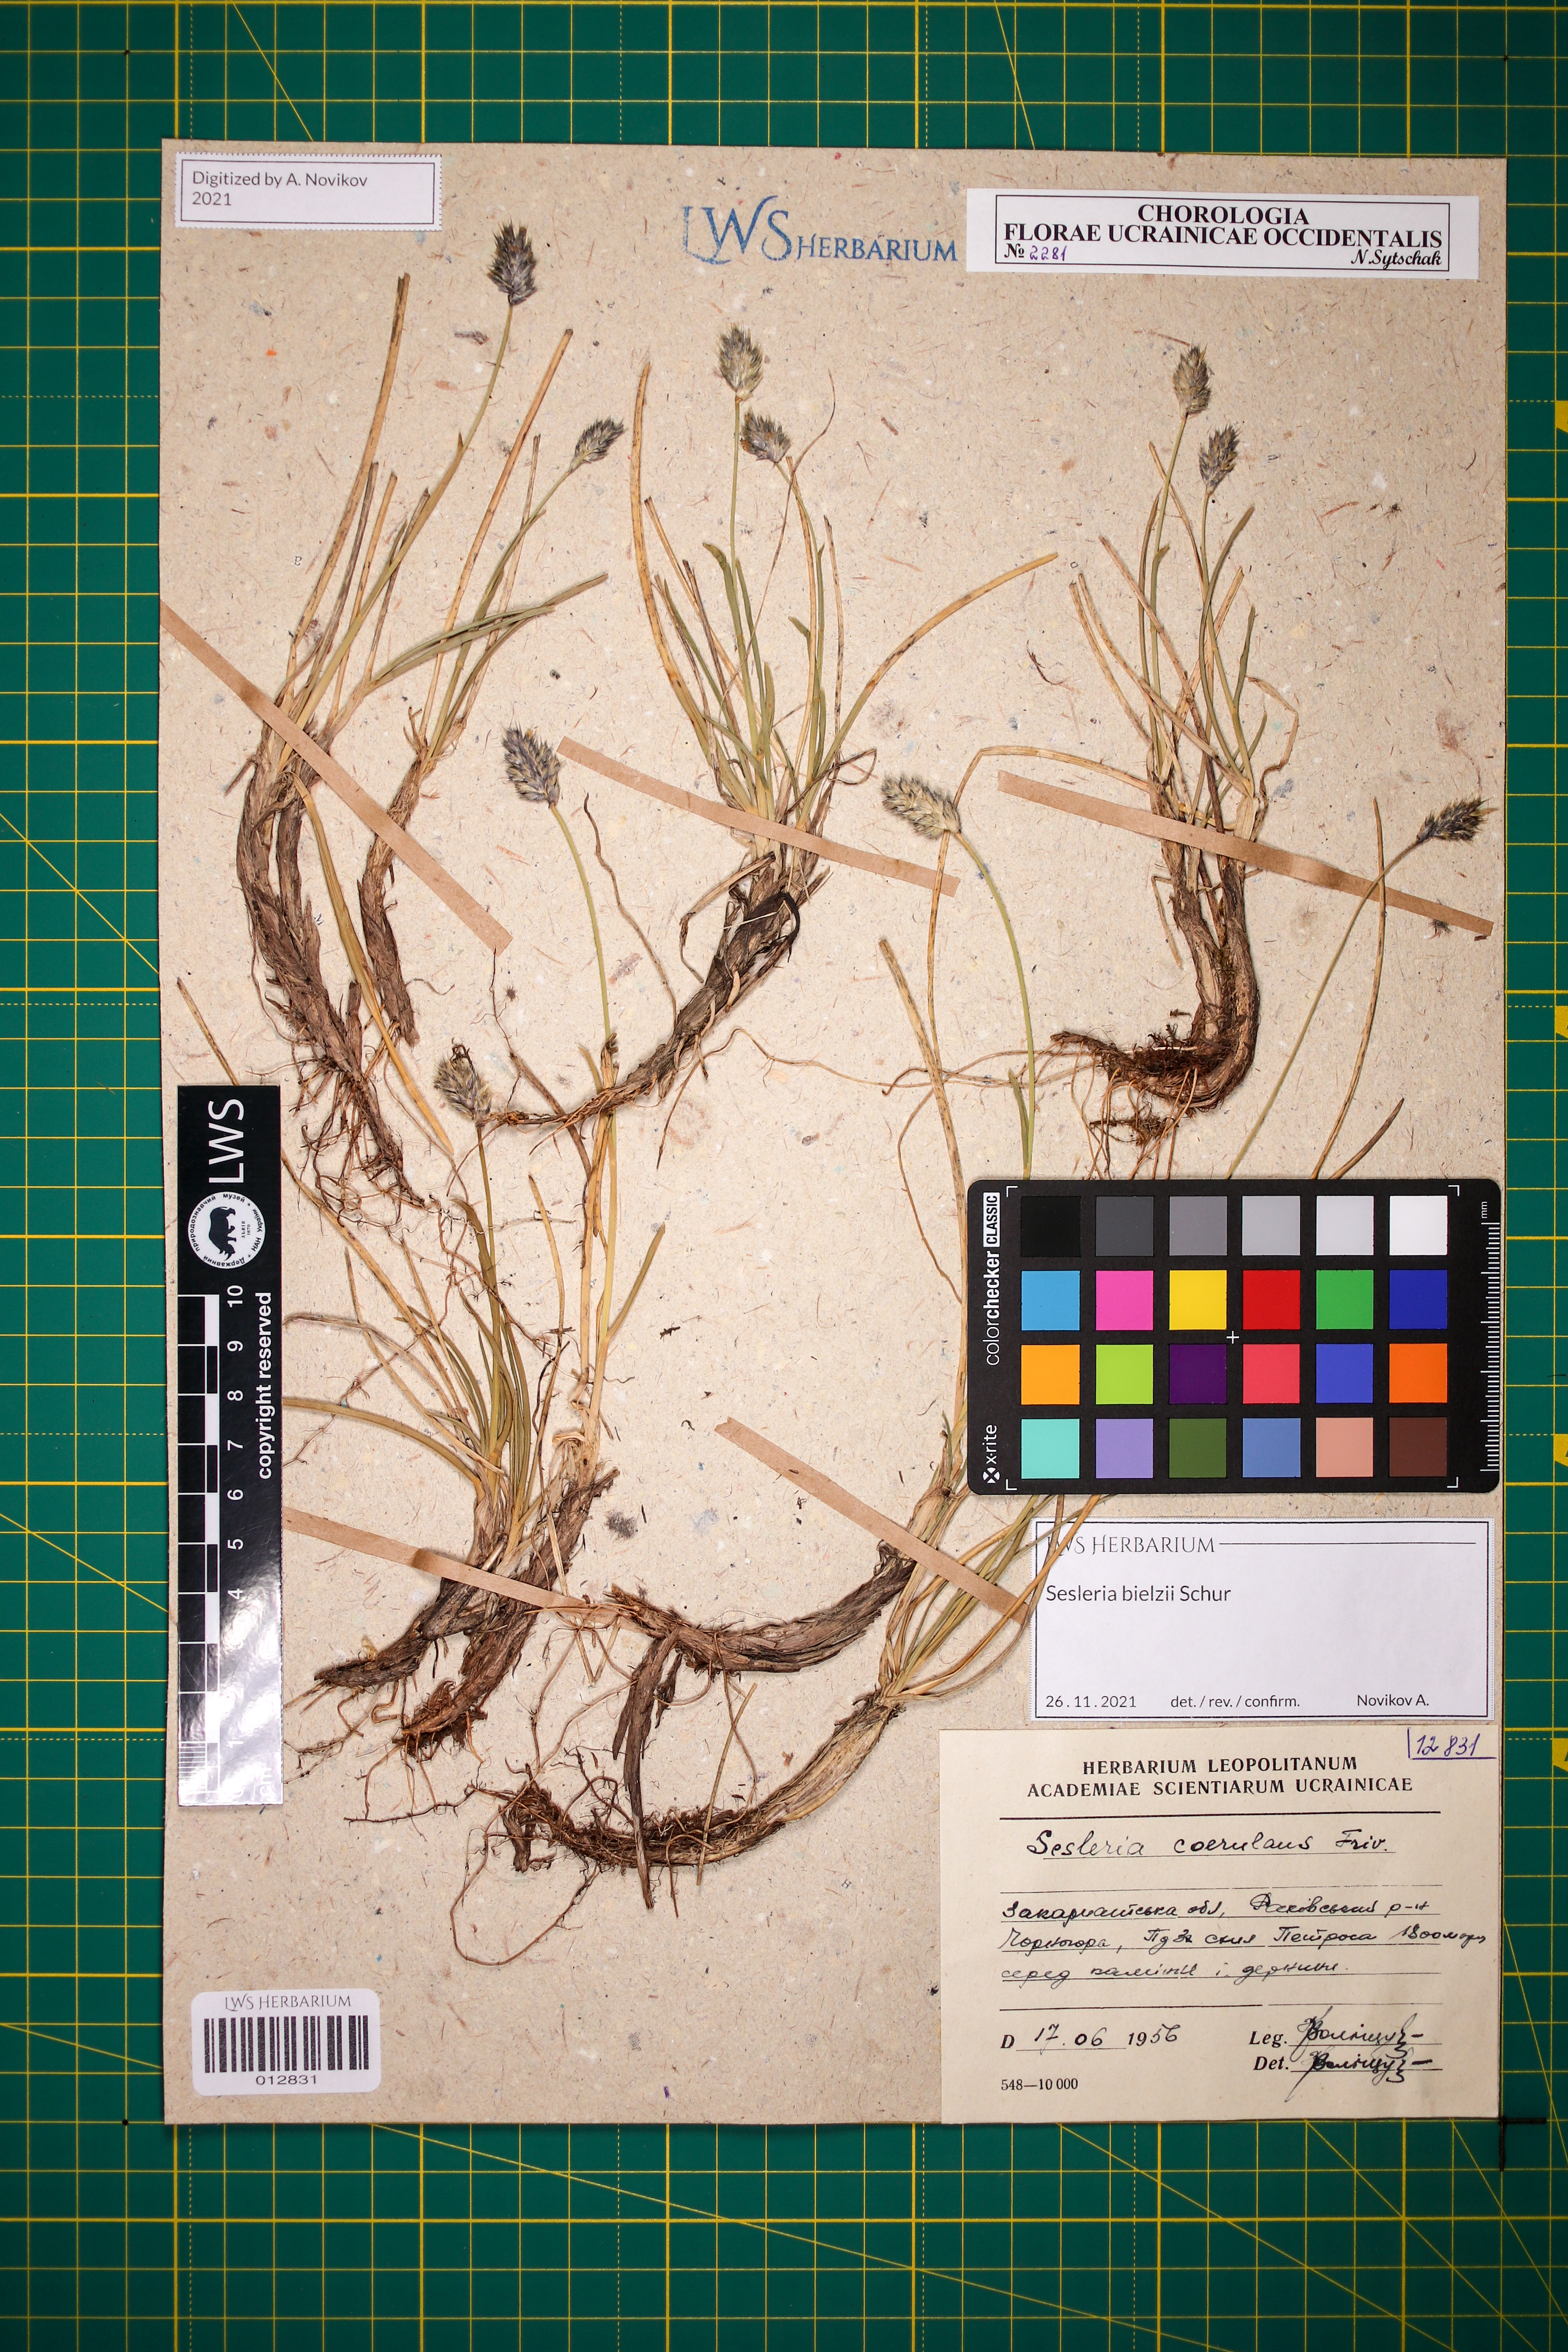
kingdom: Plantae
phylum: Tracheophyta
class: Liliopsida
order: Poales
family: Poaceae
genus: Sesleria
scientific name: Sesleria bielzii
